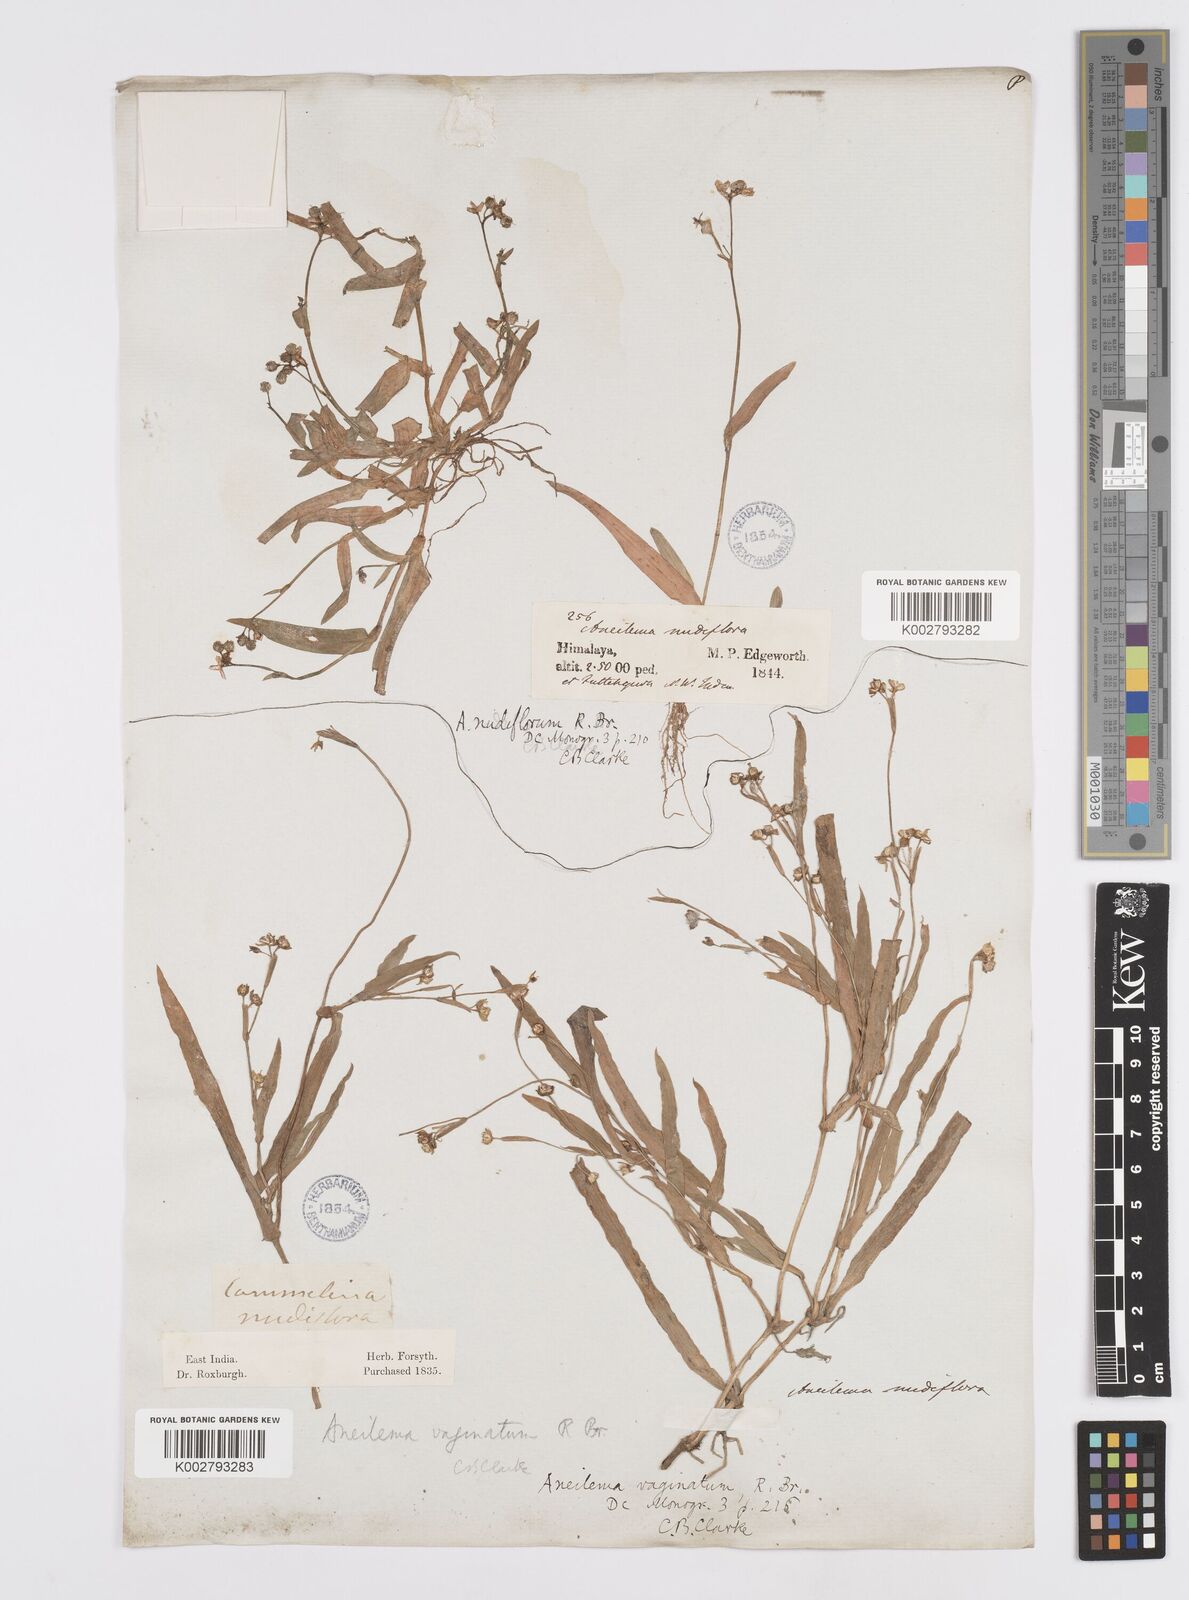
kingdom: Plantae
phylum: Tracheophyta
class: Liliopsida
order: Commelinales
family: Commelinaceae
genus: Murdannia
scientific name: Murdannia
